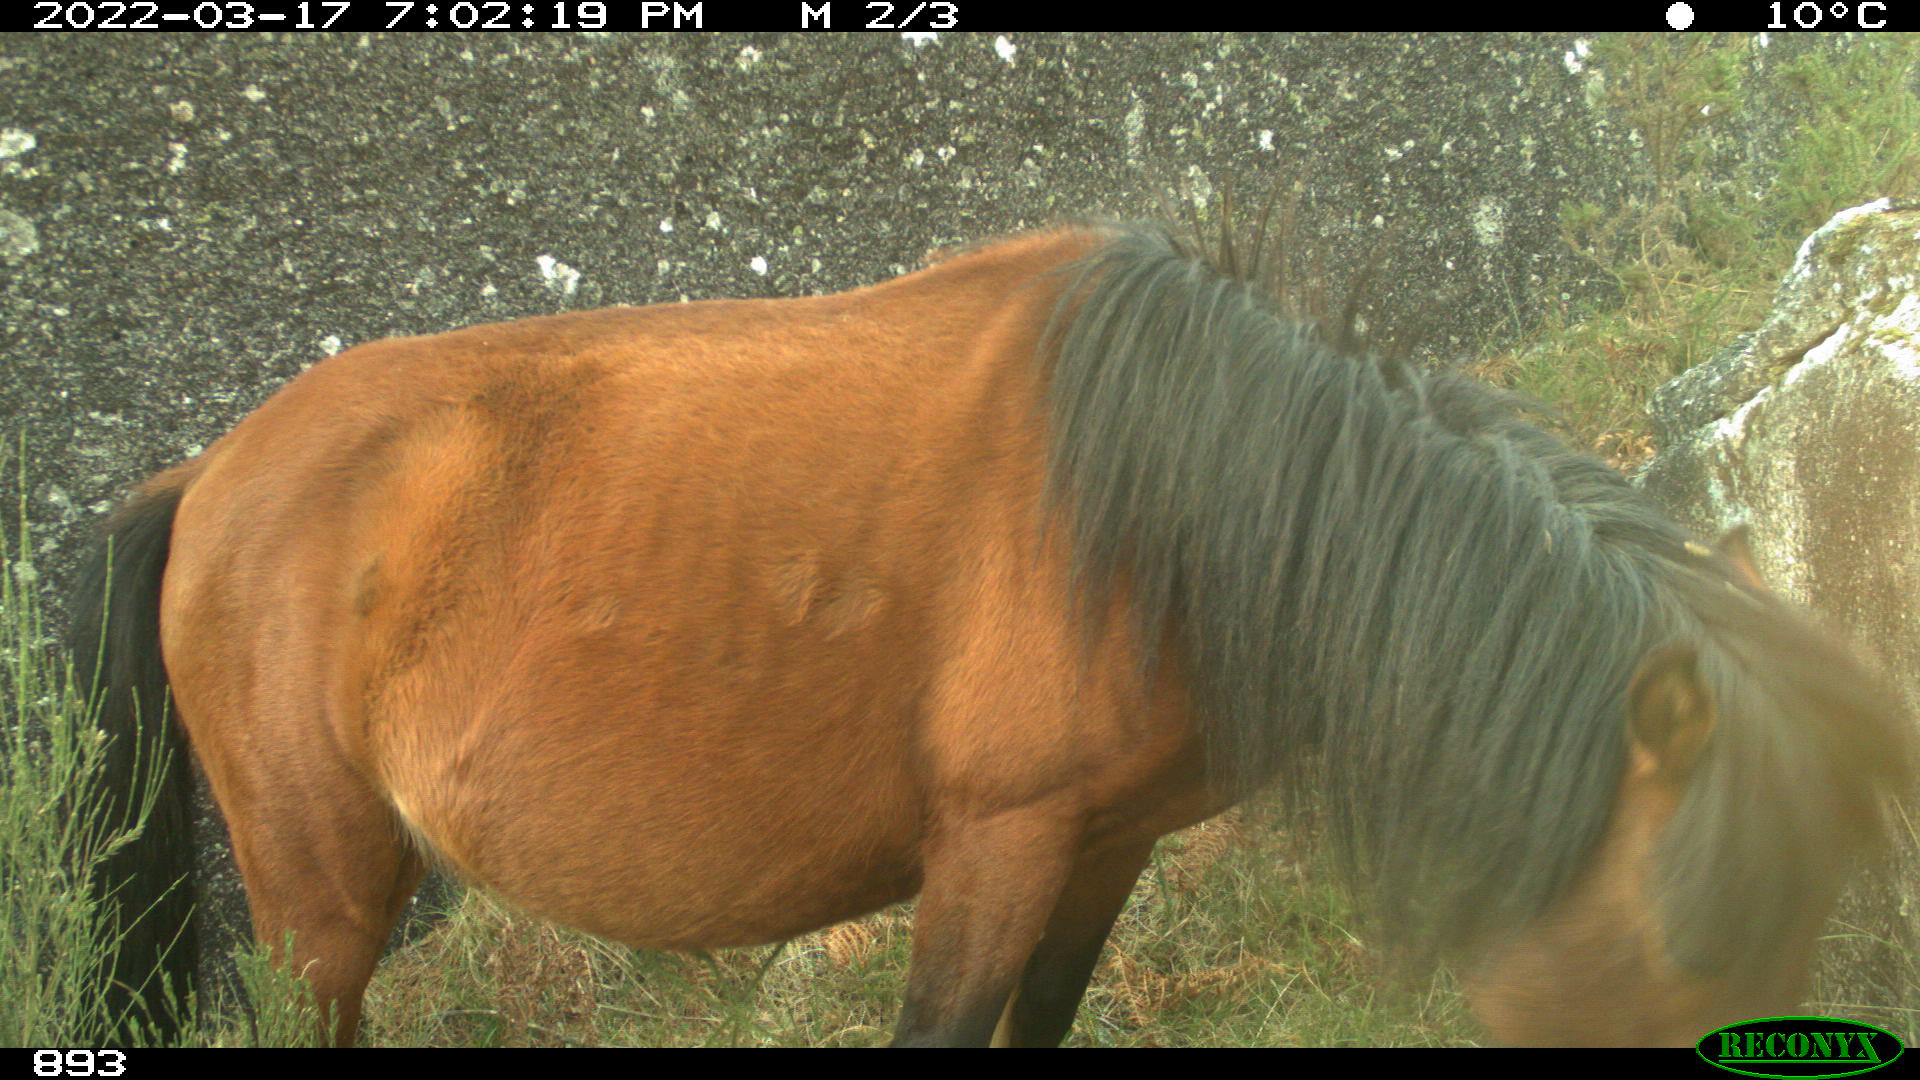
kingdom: Animalia
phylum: Chordata
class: Mammalia
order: Perissodactyla
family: Equidae
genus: Equus
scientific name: Equus caballus
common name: Horse
